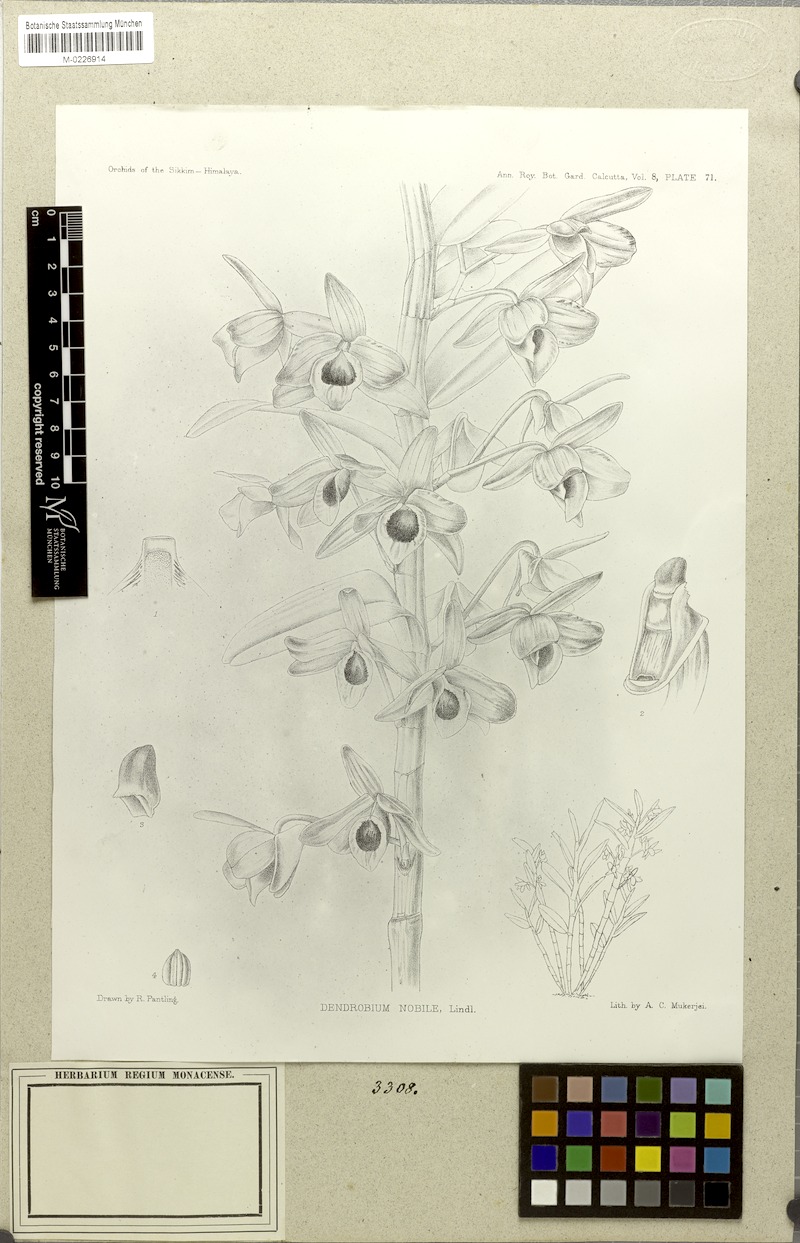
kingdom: Plantae
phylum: Tracheophyta
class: Liliopsida
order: Asparagales
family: Orchidaceae
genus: Dendrobium
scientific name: Dendrobium nobile
